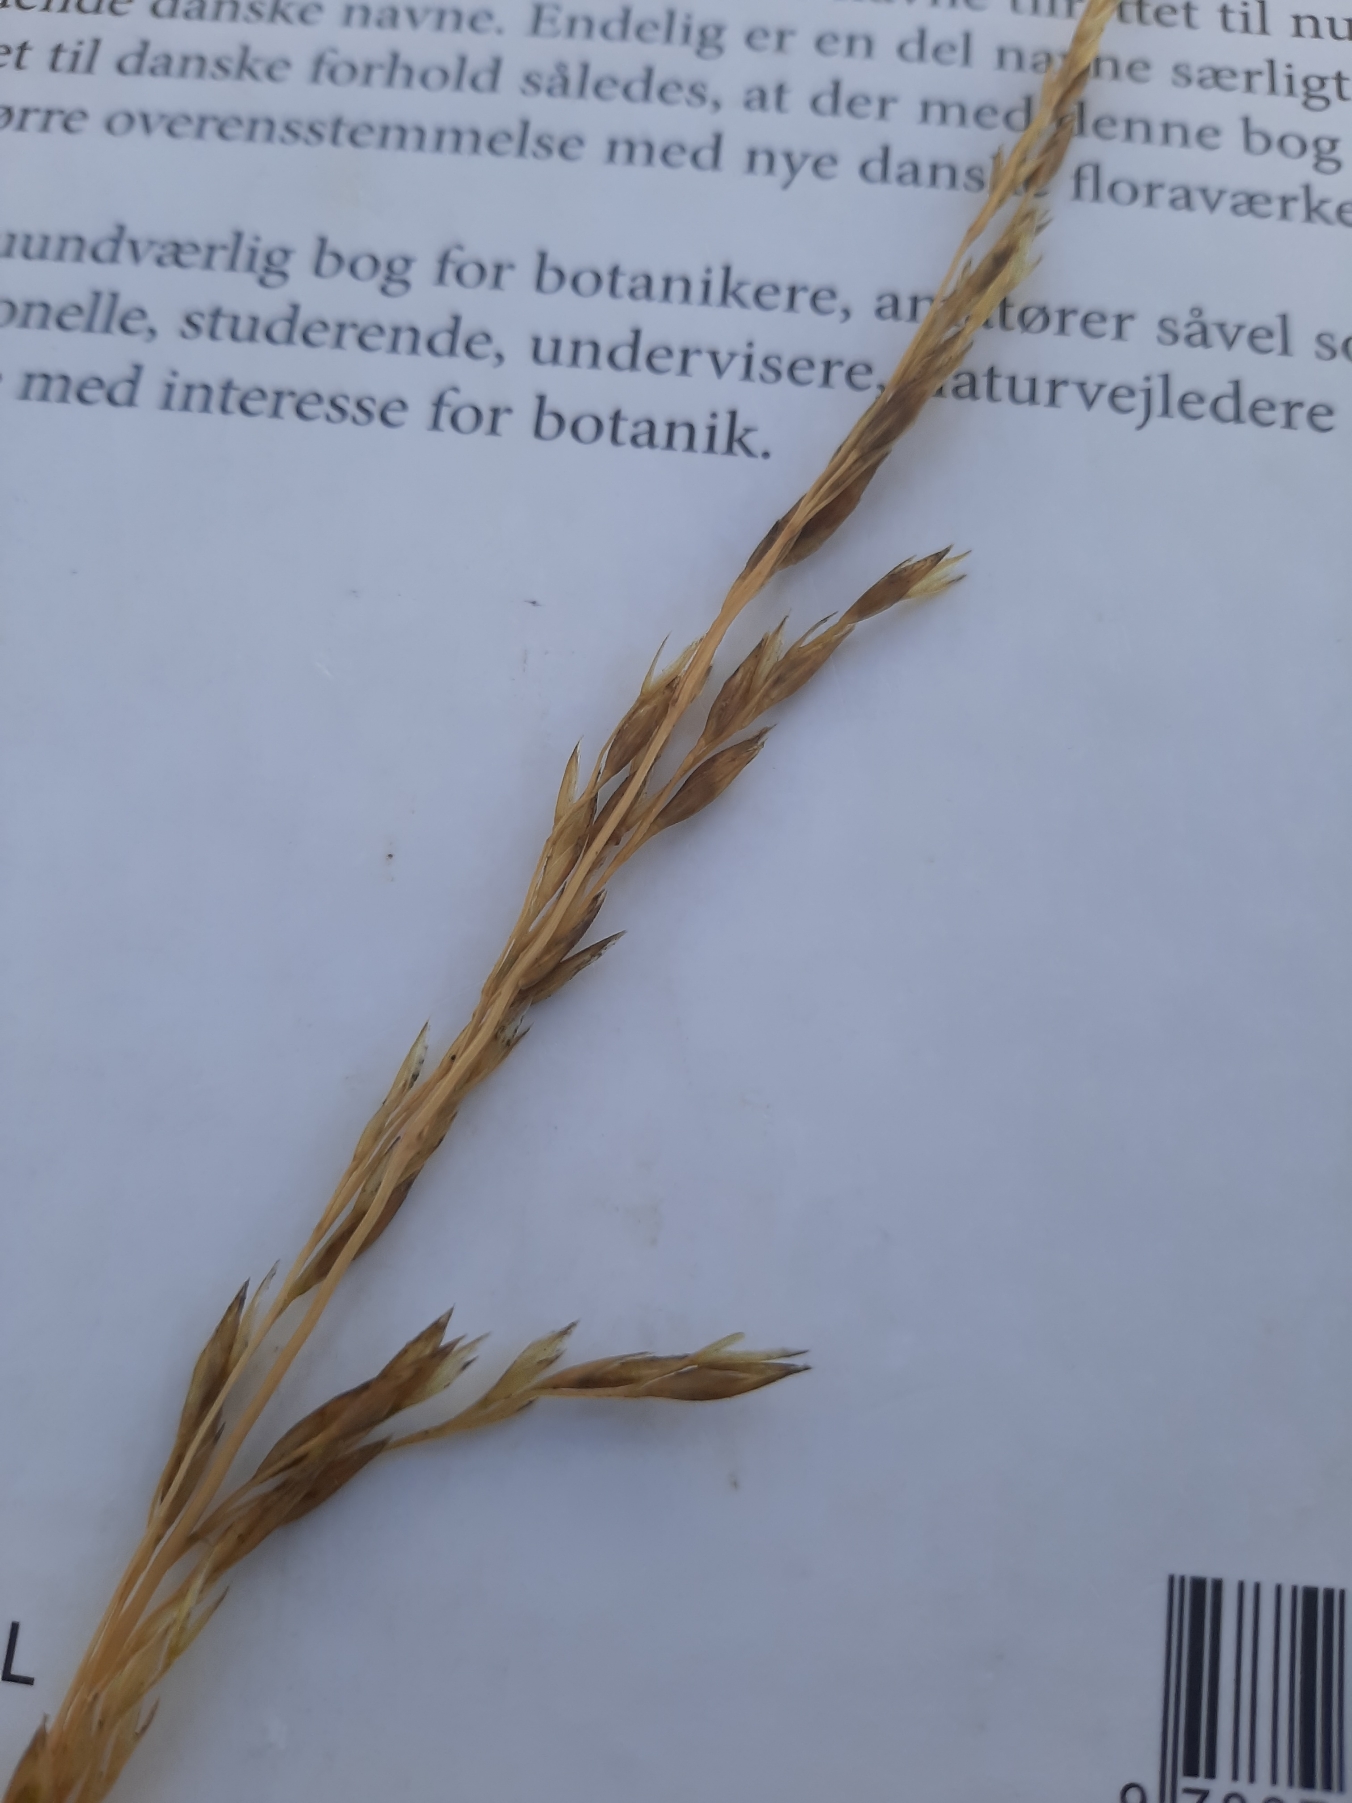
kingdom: Plantae
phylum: Tracheophyta
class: Liliopsida
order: Poales
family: Poaceae
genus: Arrhenatherum
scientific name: Arrhenatherum elatius
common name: Draphavre
